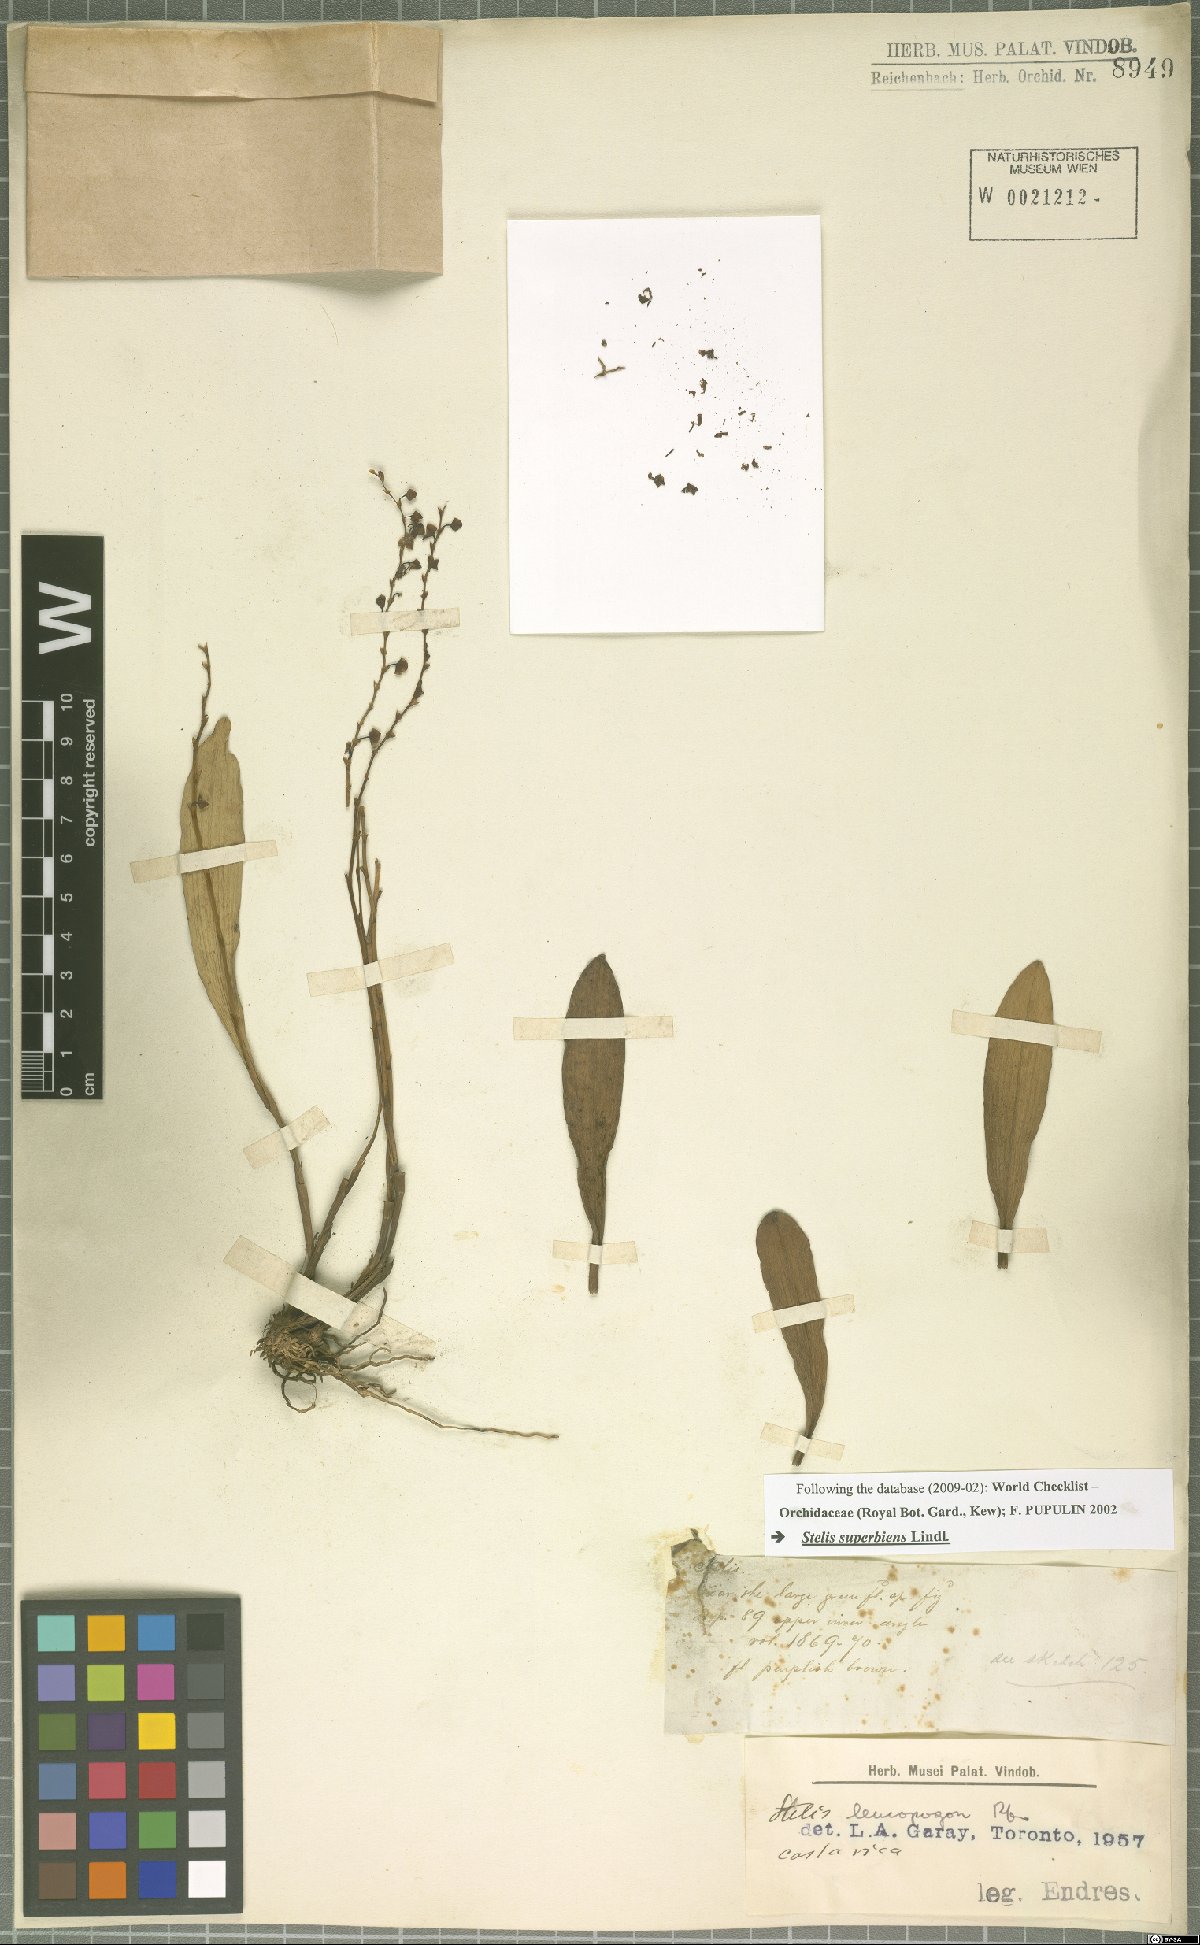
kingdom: Plantae
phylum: Tracheophyta
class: Liliopsida
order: Asparagales
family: Orchidaceae
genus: Stelis
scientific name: Stelis superbiens
